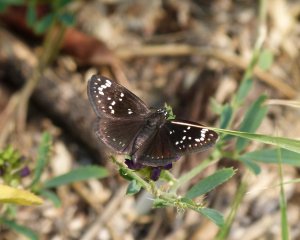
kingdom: Animalia
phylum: Arthropoda
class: Insecta
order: Lepidoptera
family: Hesperiidae
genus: Pholisora
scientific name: Pholisora catullus
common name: Common Sootywing
